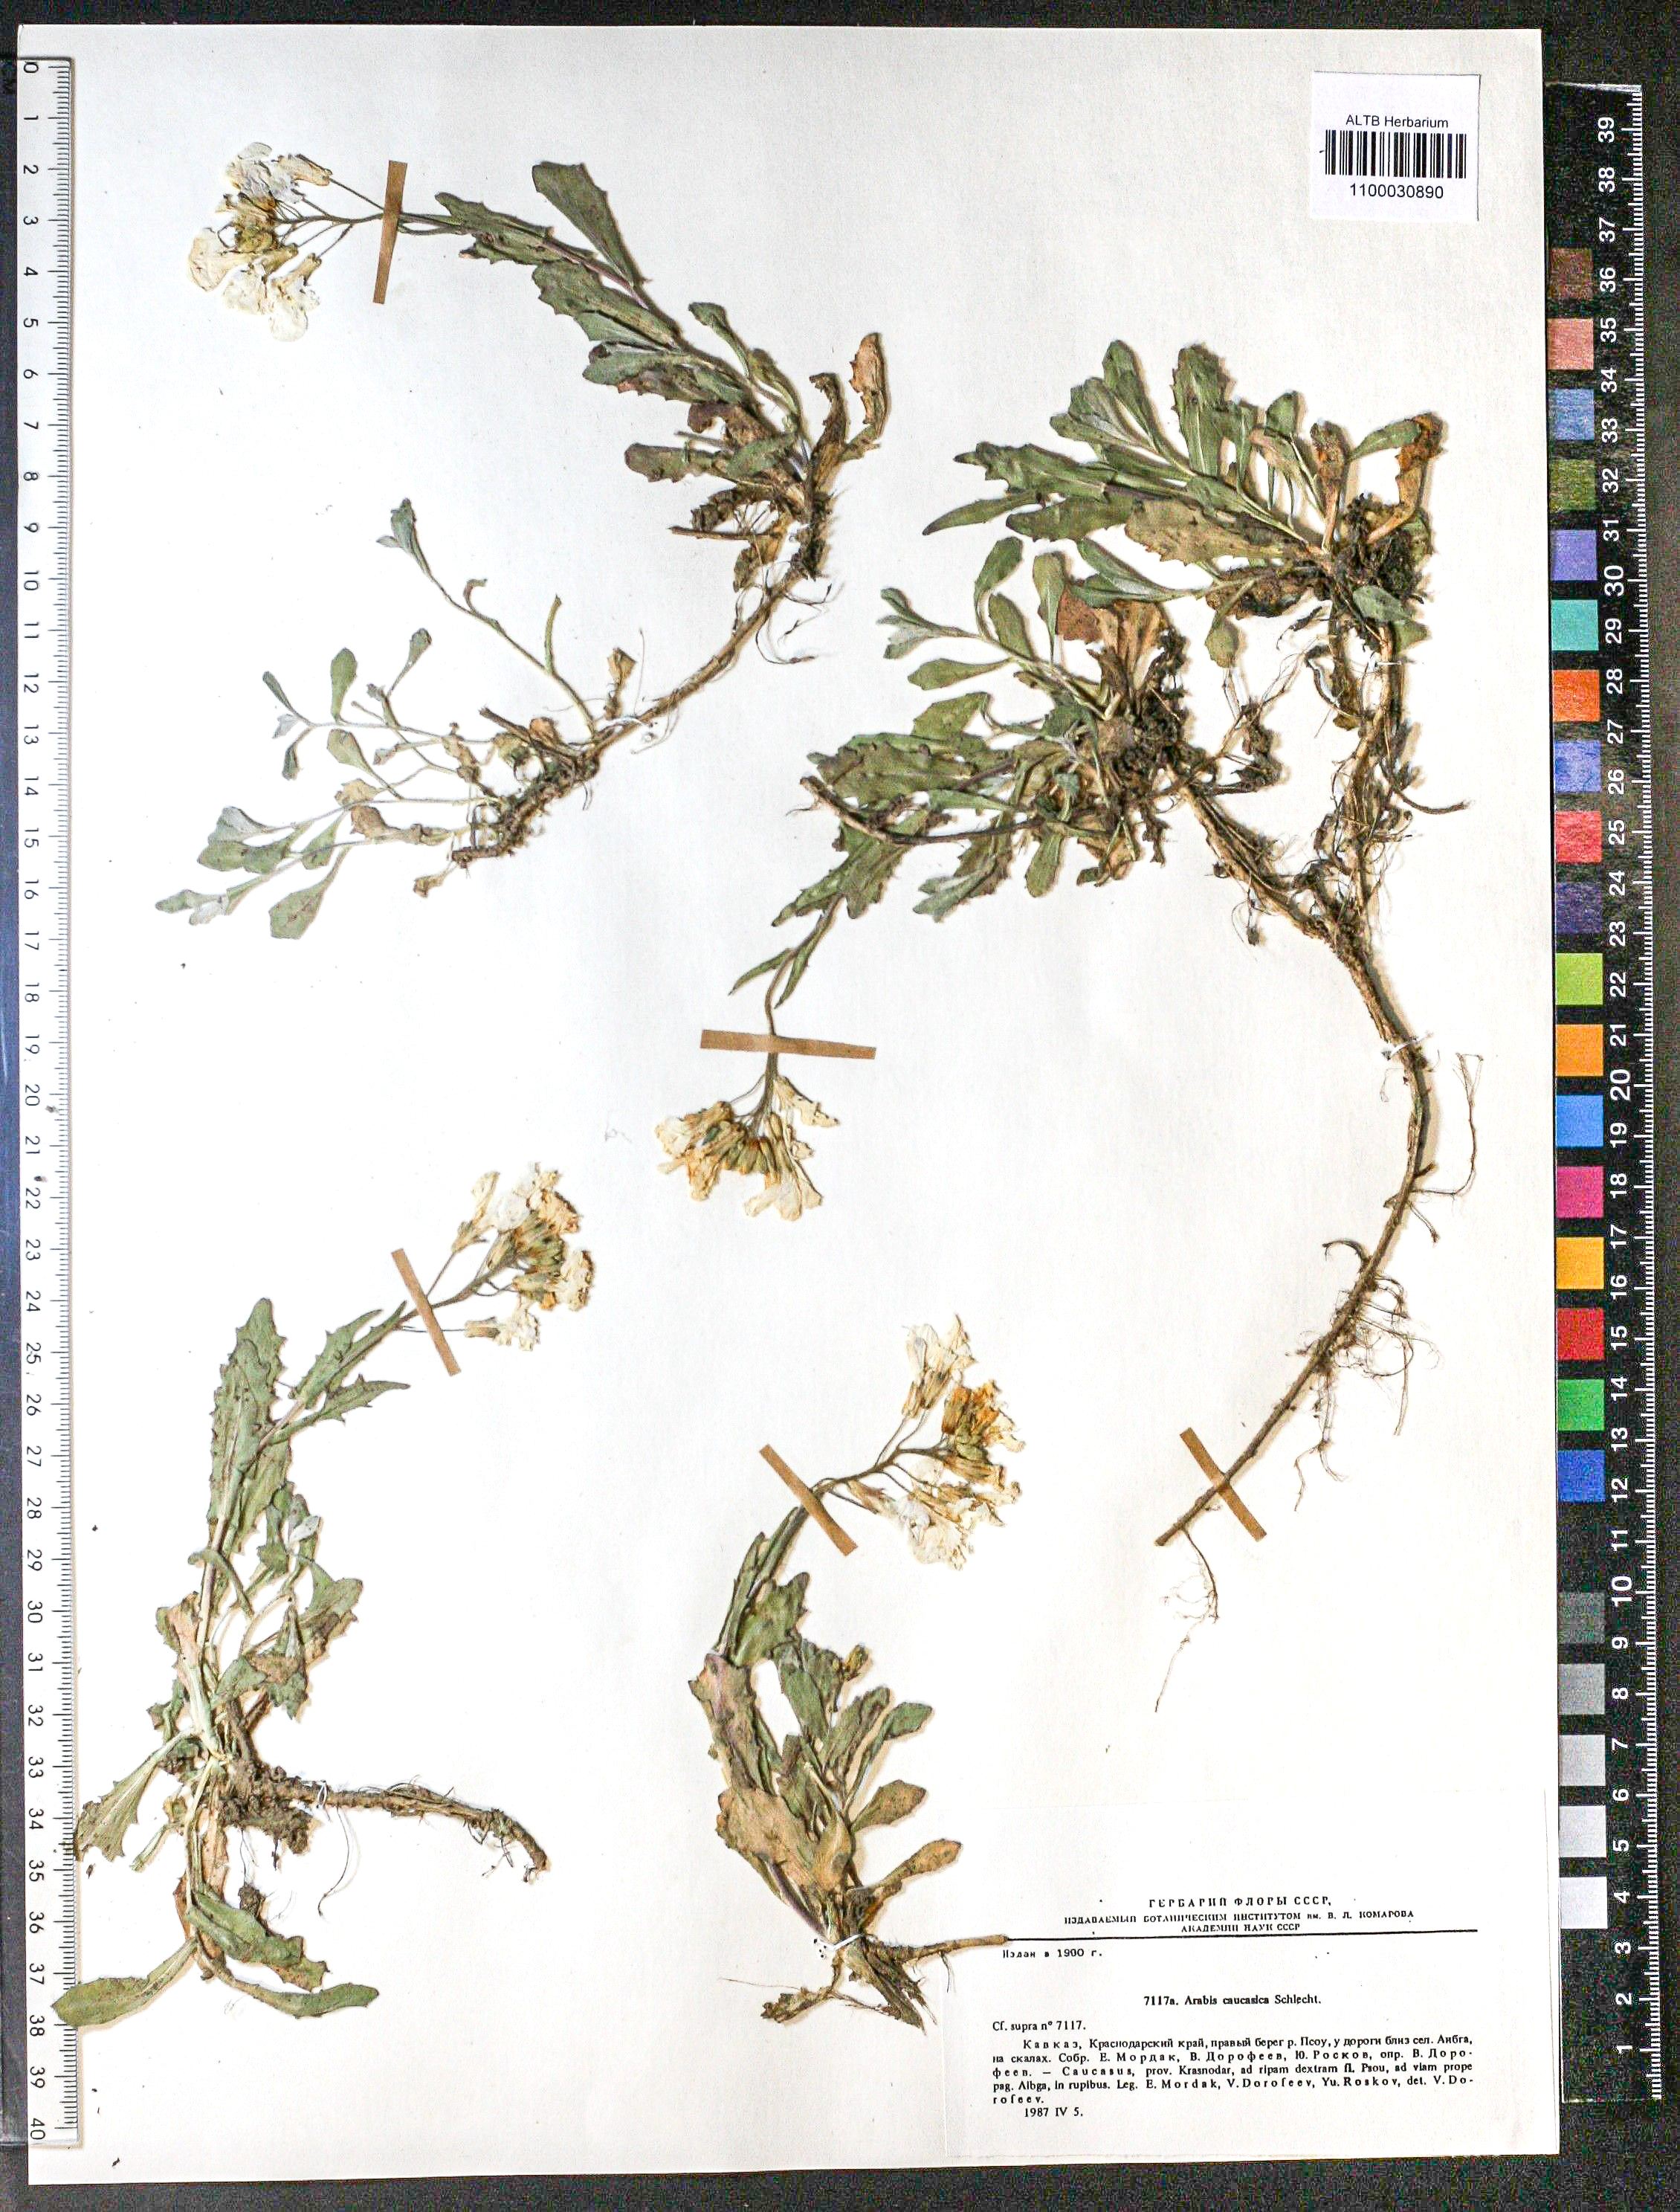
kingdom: Plantae
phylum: Tracheophyta
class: Magnoliopsida
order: Brassicales
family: Brassicaceae
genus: Arabis
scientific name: Arabis caucasica
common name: Gray rockcress
